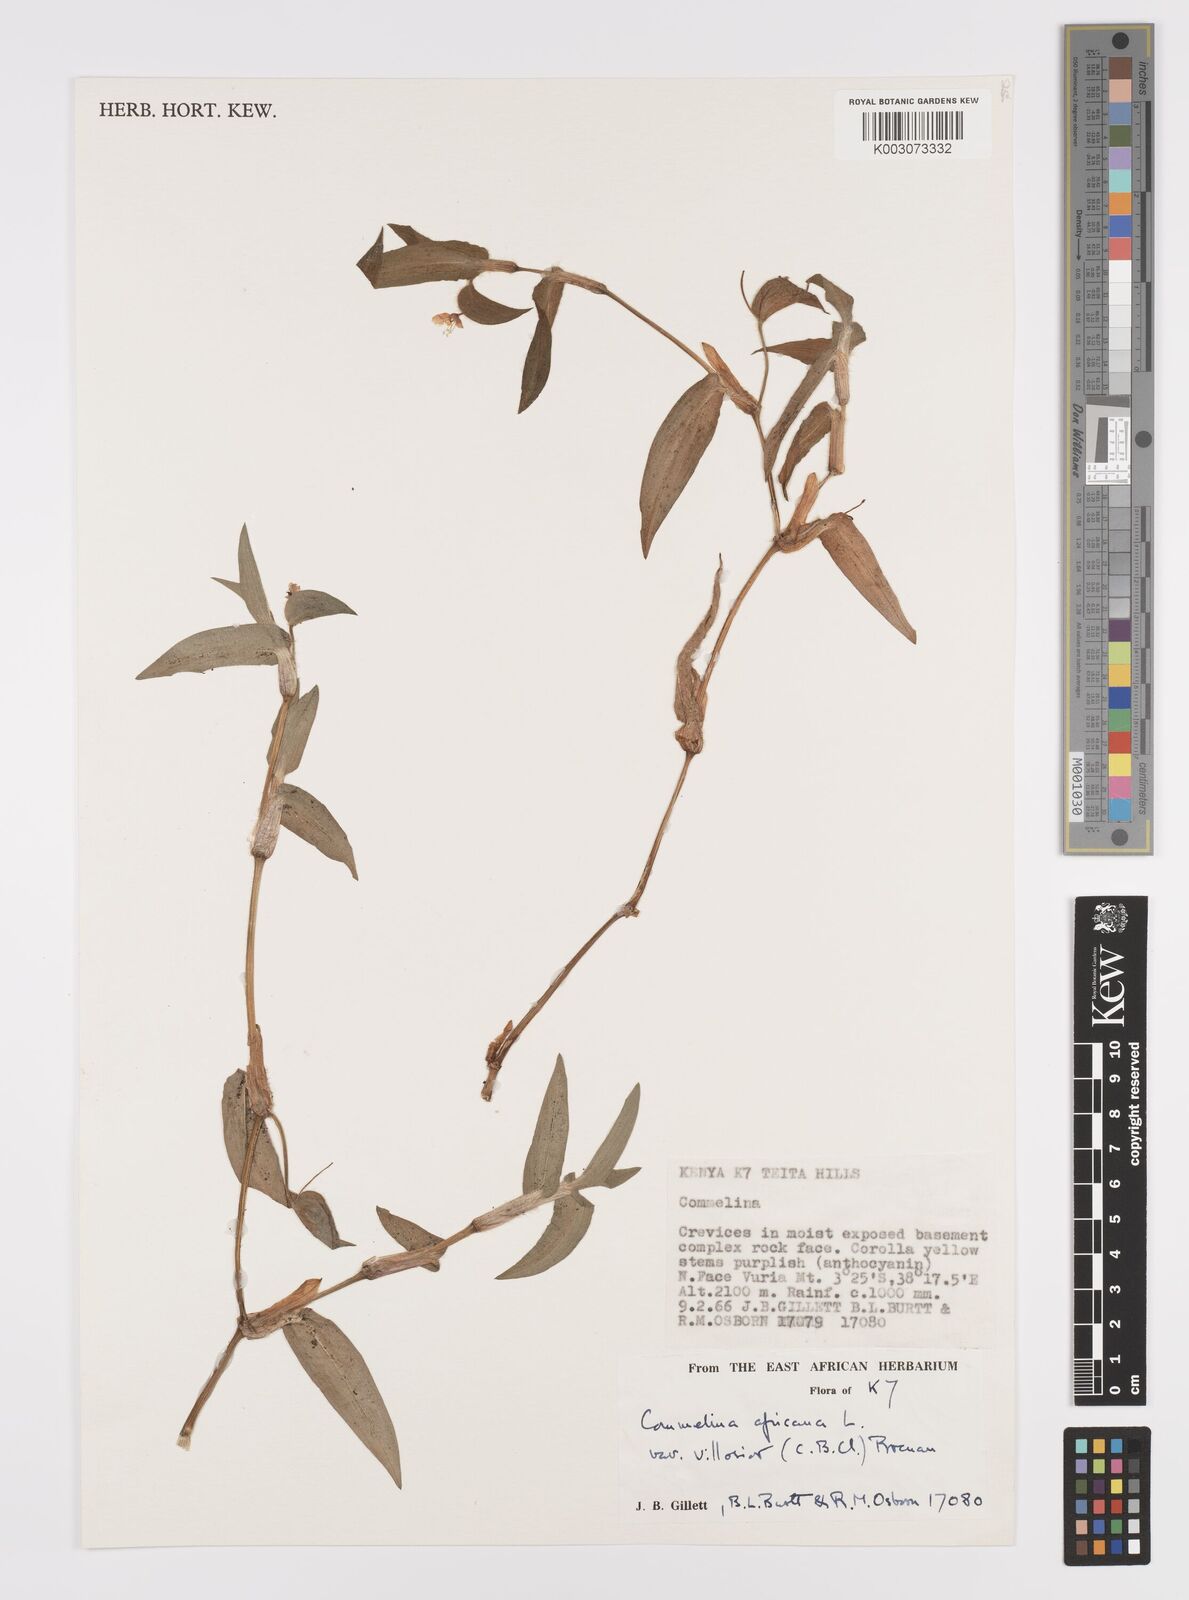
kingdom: Plantae
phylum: Tracheophyta
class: Liliopsida
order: Commelinales
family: Commelinaceae
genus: Commelina
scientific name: Commelina africana
